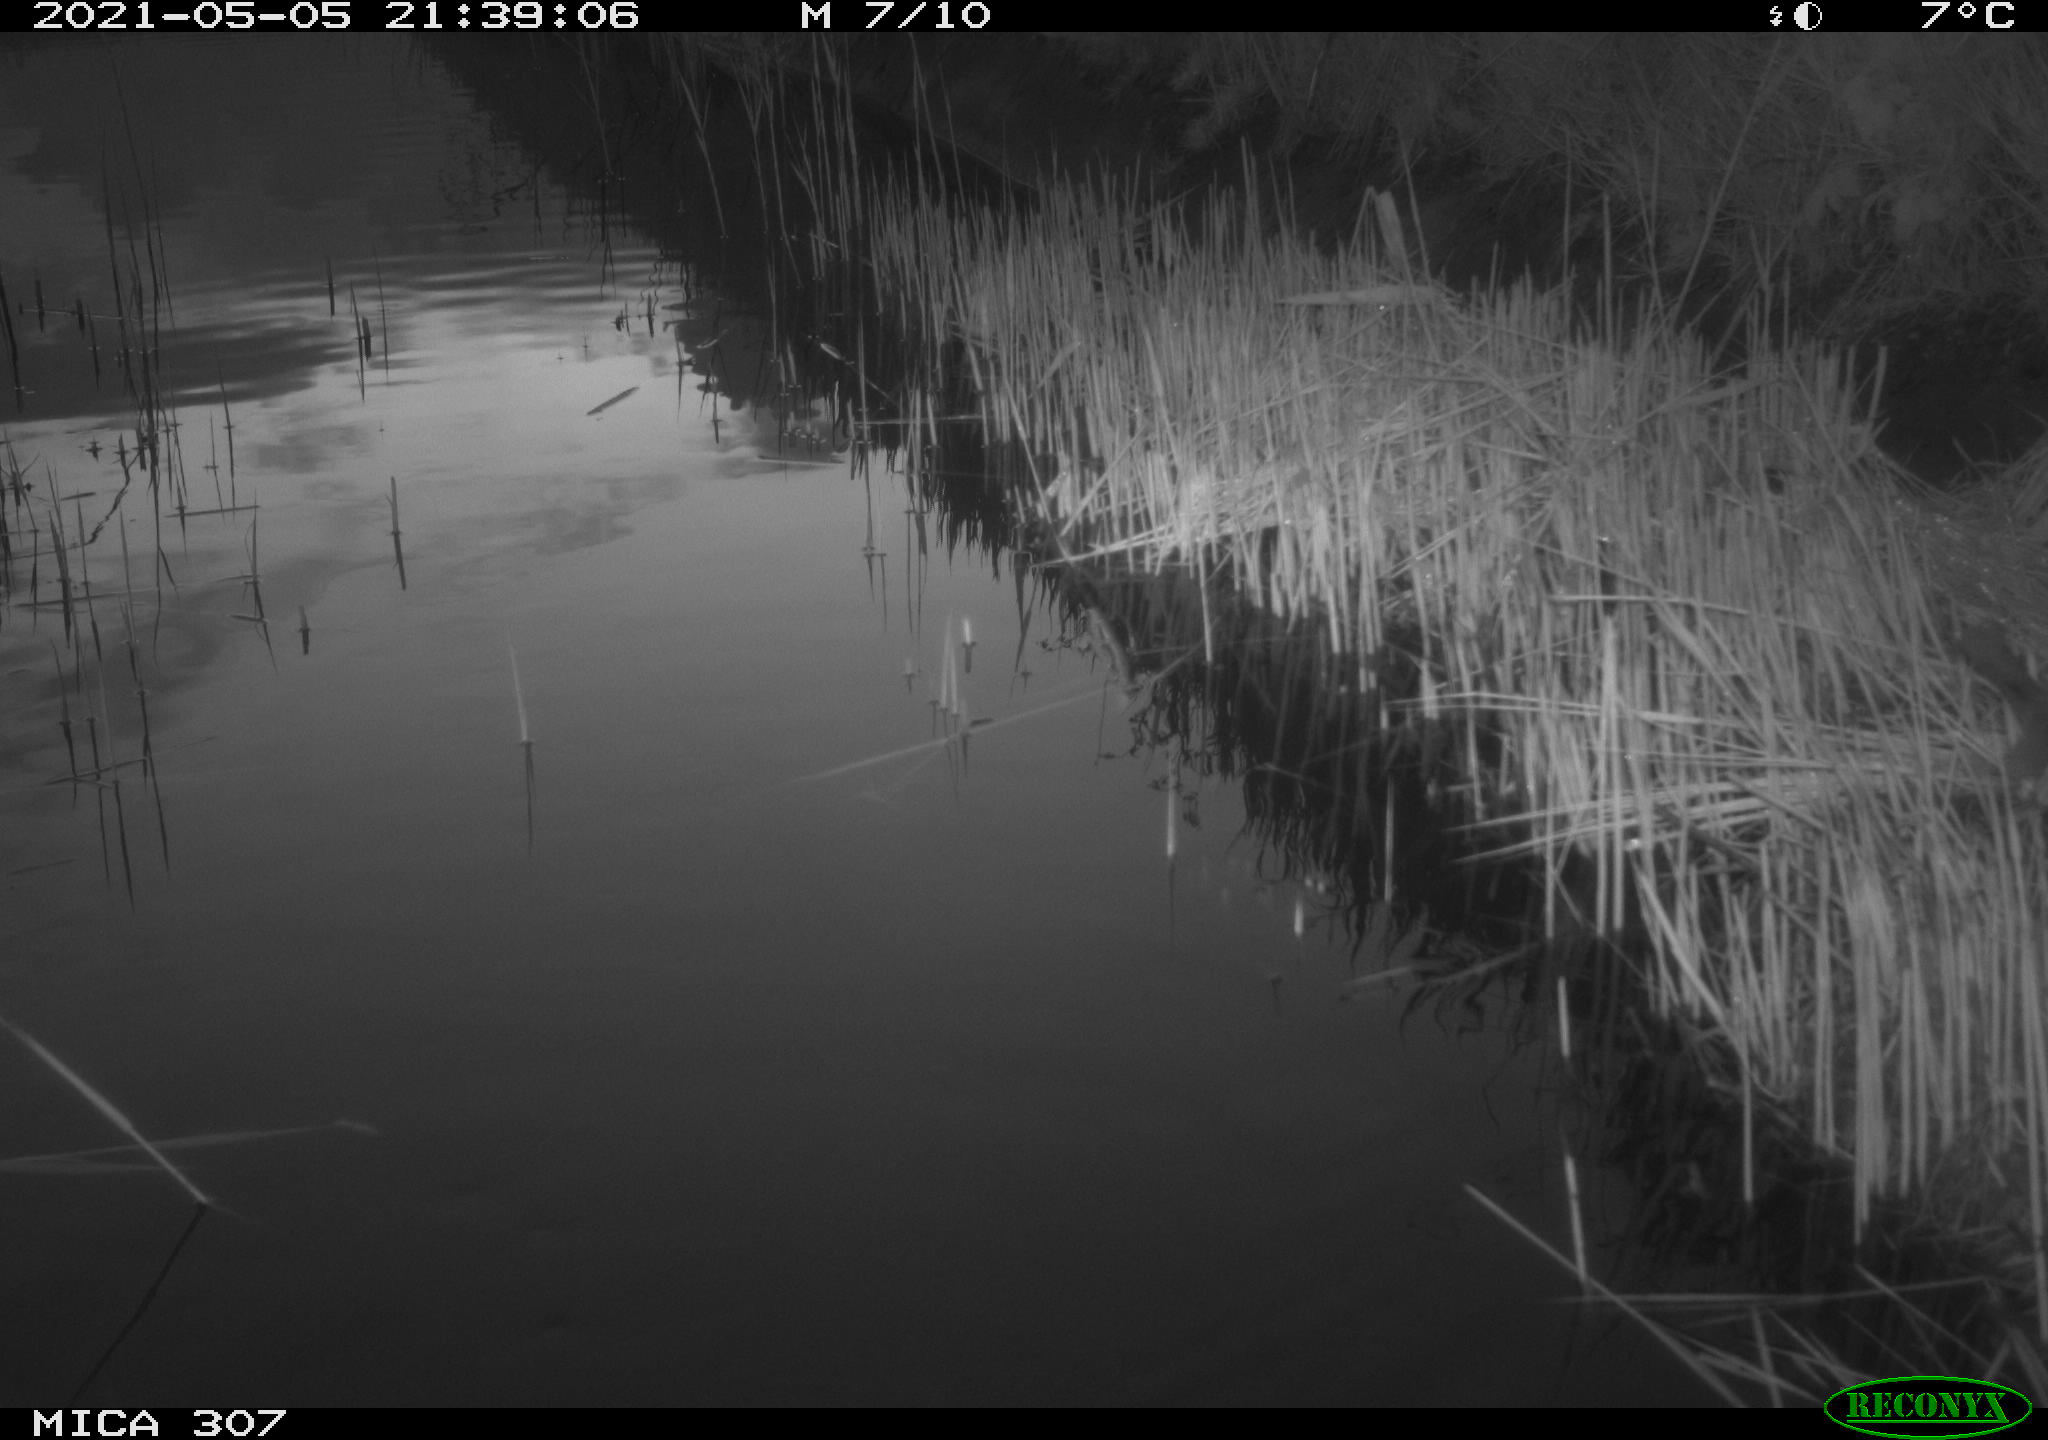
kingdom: Animalia
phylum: Chordata
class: Aves
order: Gruiformes
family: Rallidae
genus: Gallinula
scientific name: Gallinula chloropus
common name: Common moorhen
